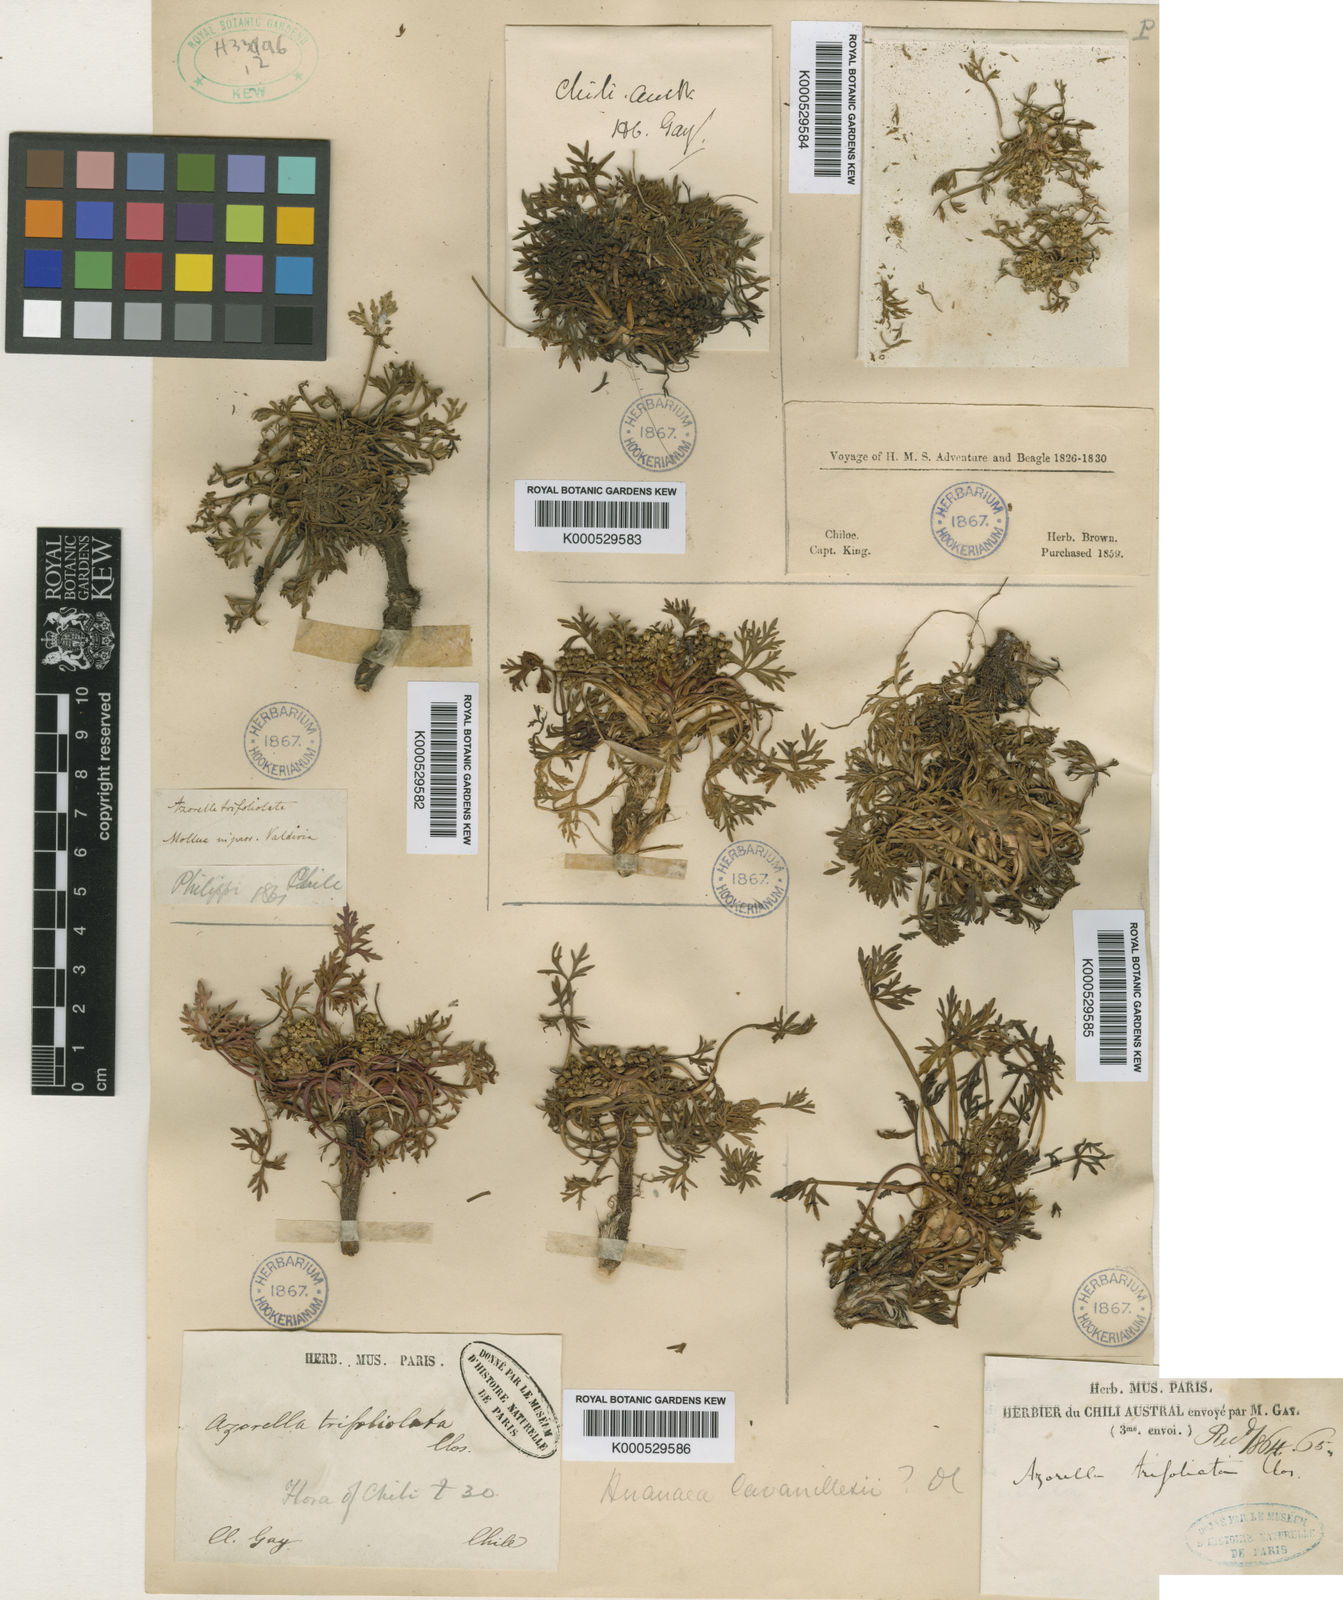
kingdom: Plantae
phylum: Tracheophyta
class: Magnoliopsida
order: Apiales
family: Apiaceae
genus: Azorella
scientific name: Azorella
